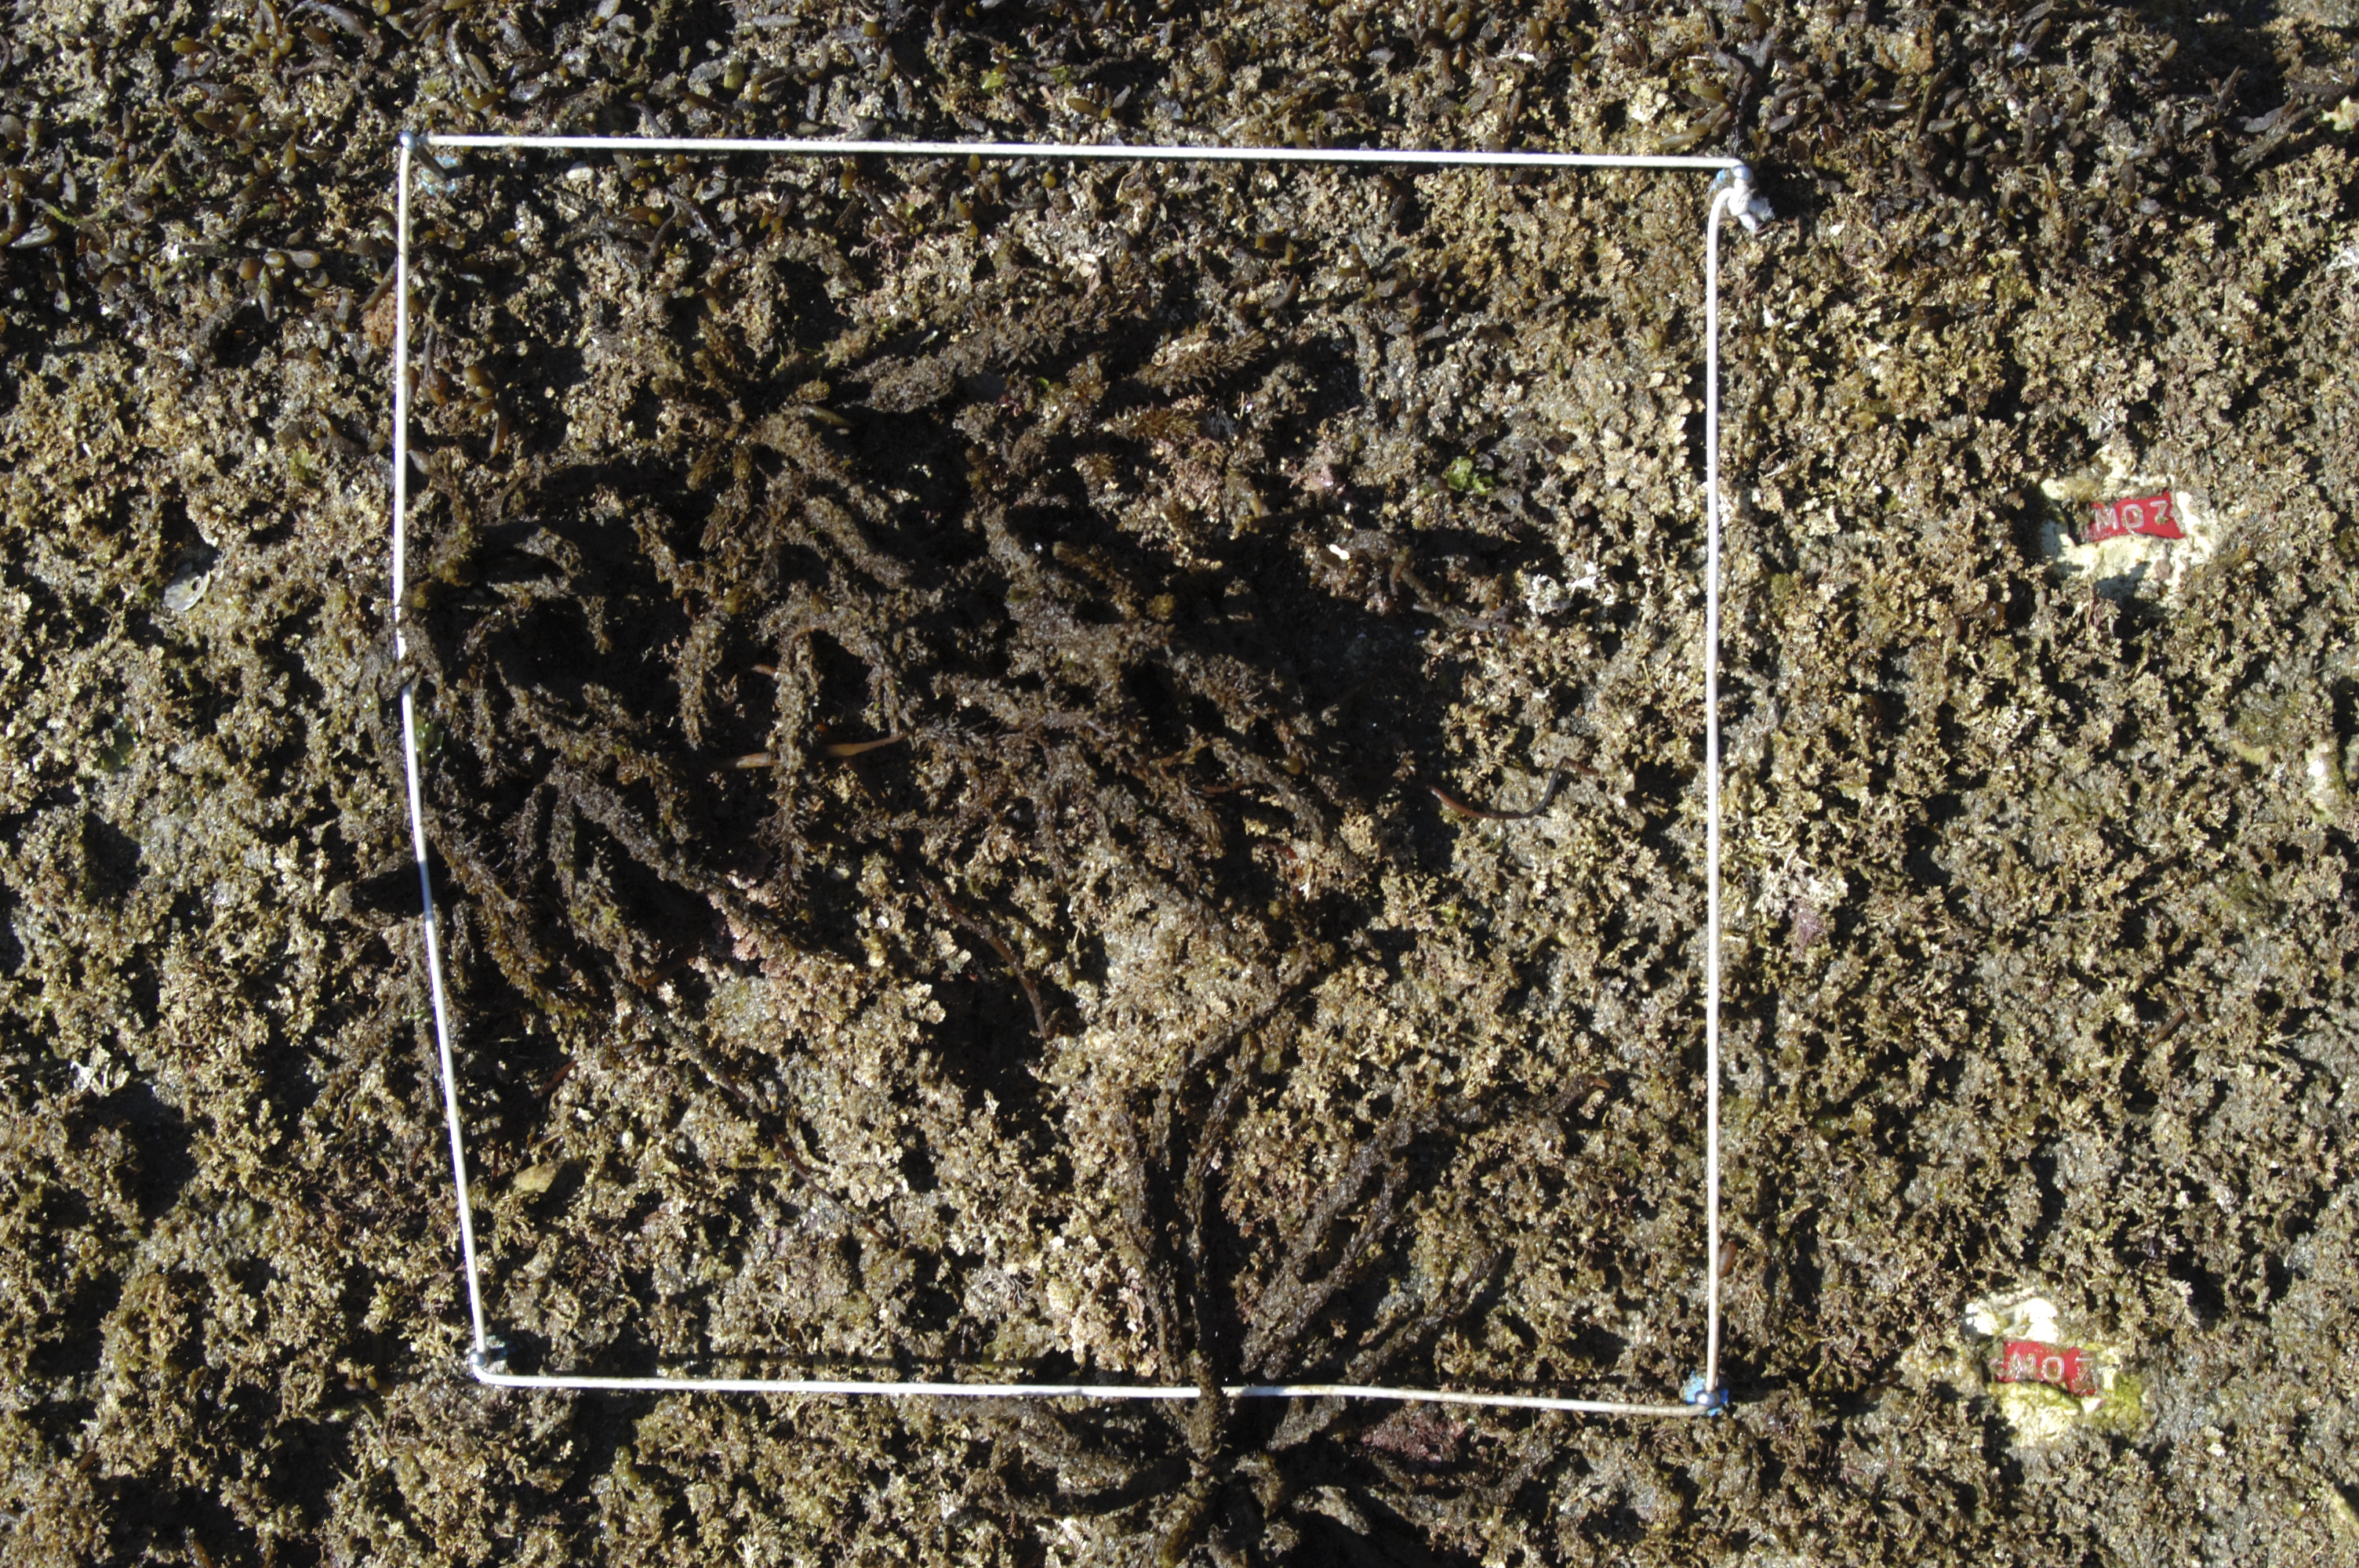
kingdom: Chromista
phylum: Ochrophyta
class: Phaeophyceae
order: Fucales
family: Sargassaceae
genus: Sargassum
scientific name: Sargassum fusiforme
